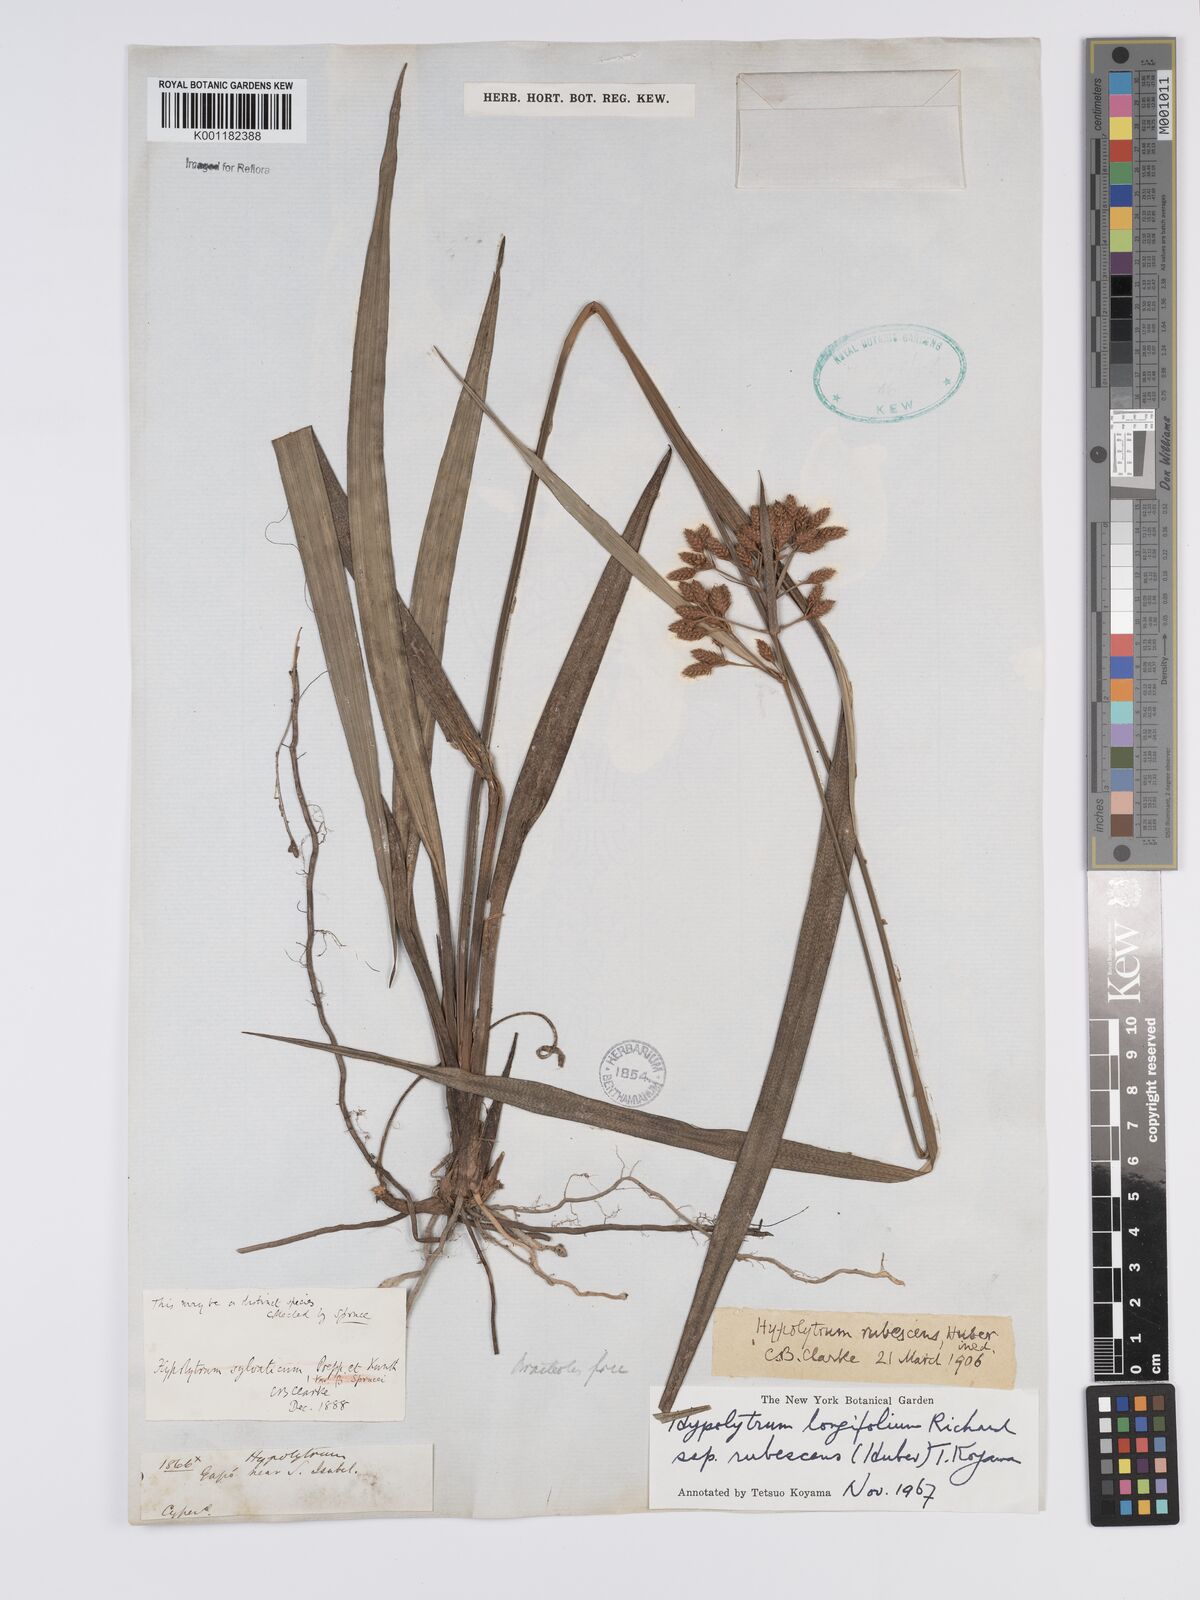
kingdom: Plantae
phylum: Tracheophyta
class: Liliopsida
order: Poales
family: Cyperaceae
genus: Hypolytrum
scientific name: Hypolytrum longifolium
